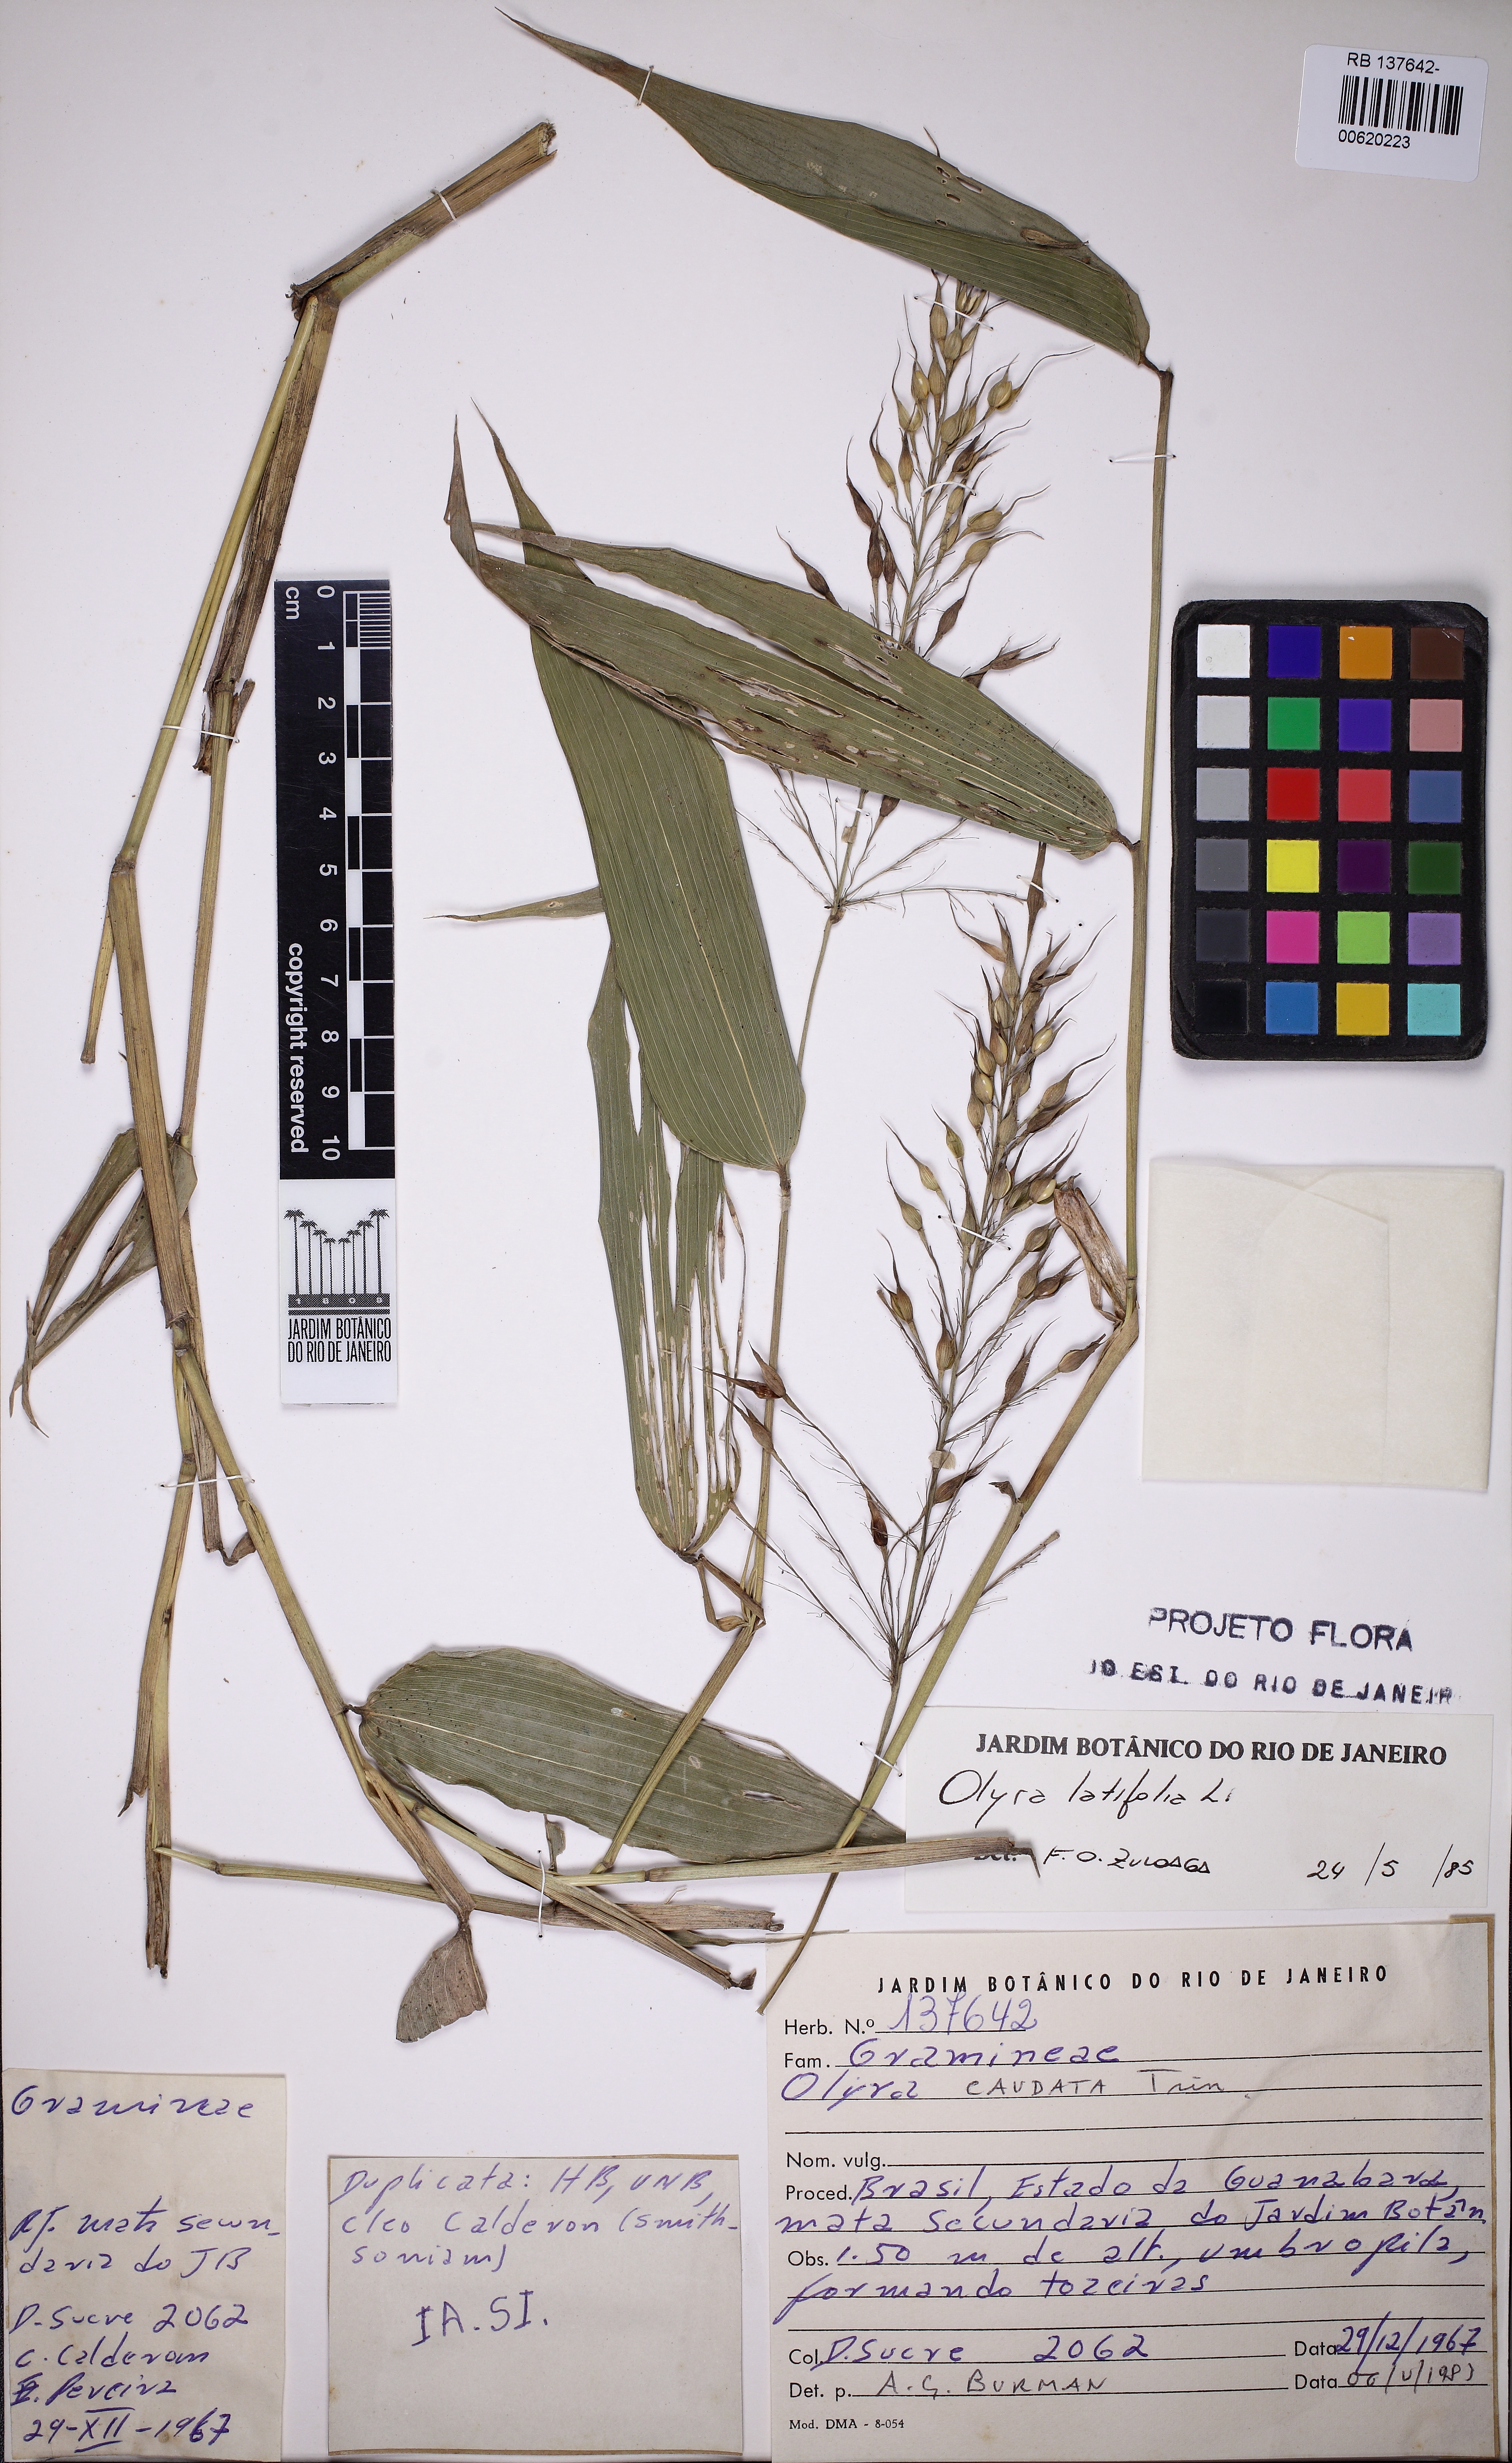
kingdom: Plantae
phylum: Tracheophyta
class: Liliopsida
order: Poales
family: Poaceae
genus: Olyra
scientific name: Olyra latifolia
